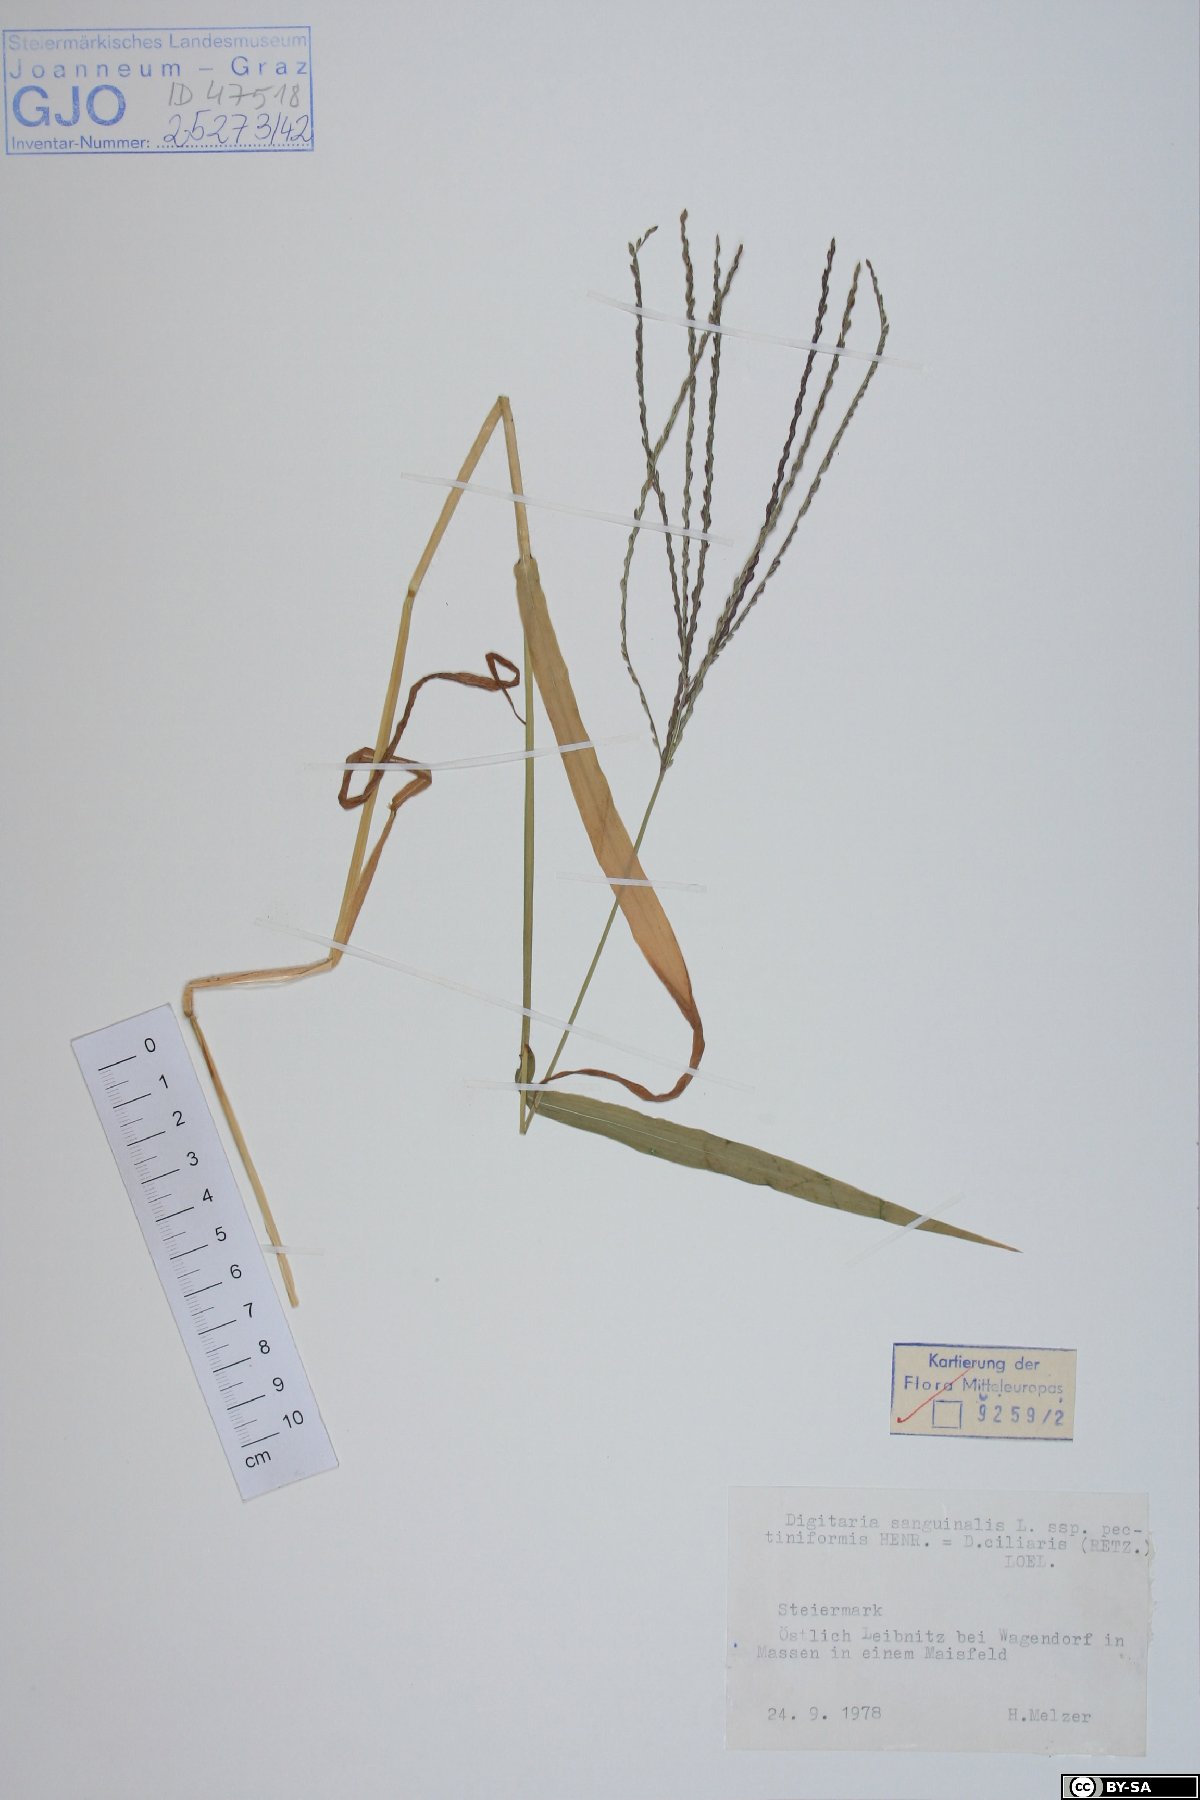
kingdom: Plantae
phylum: Tracheophyta
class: Liliopsida
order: Poales
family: Poaceae
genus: Digitaria
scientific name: Digitaria sanguinalis
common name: Hairy crabgrass
